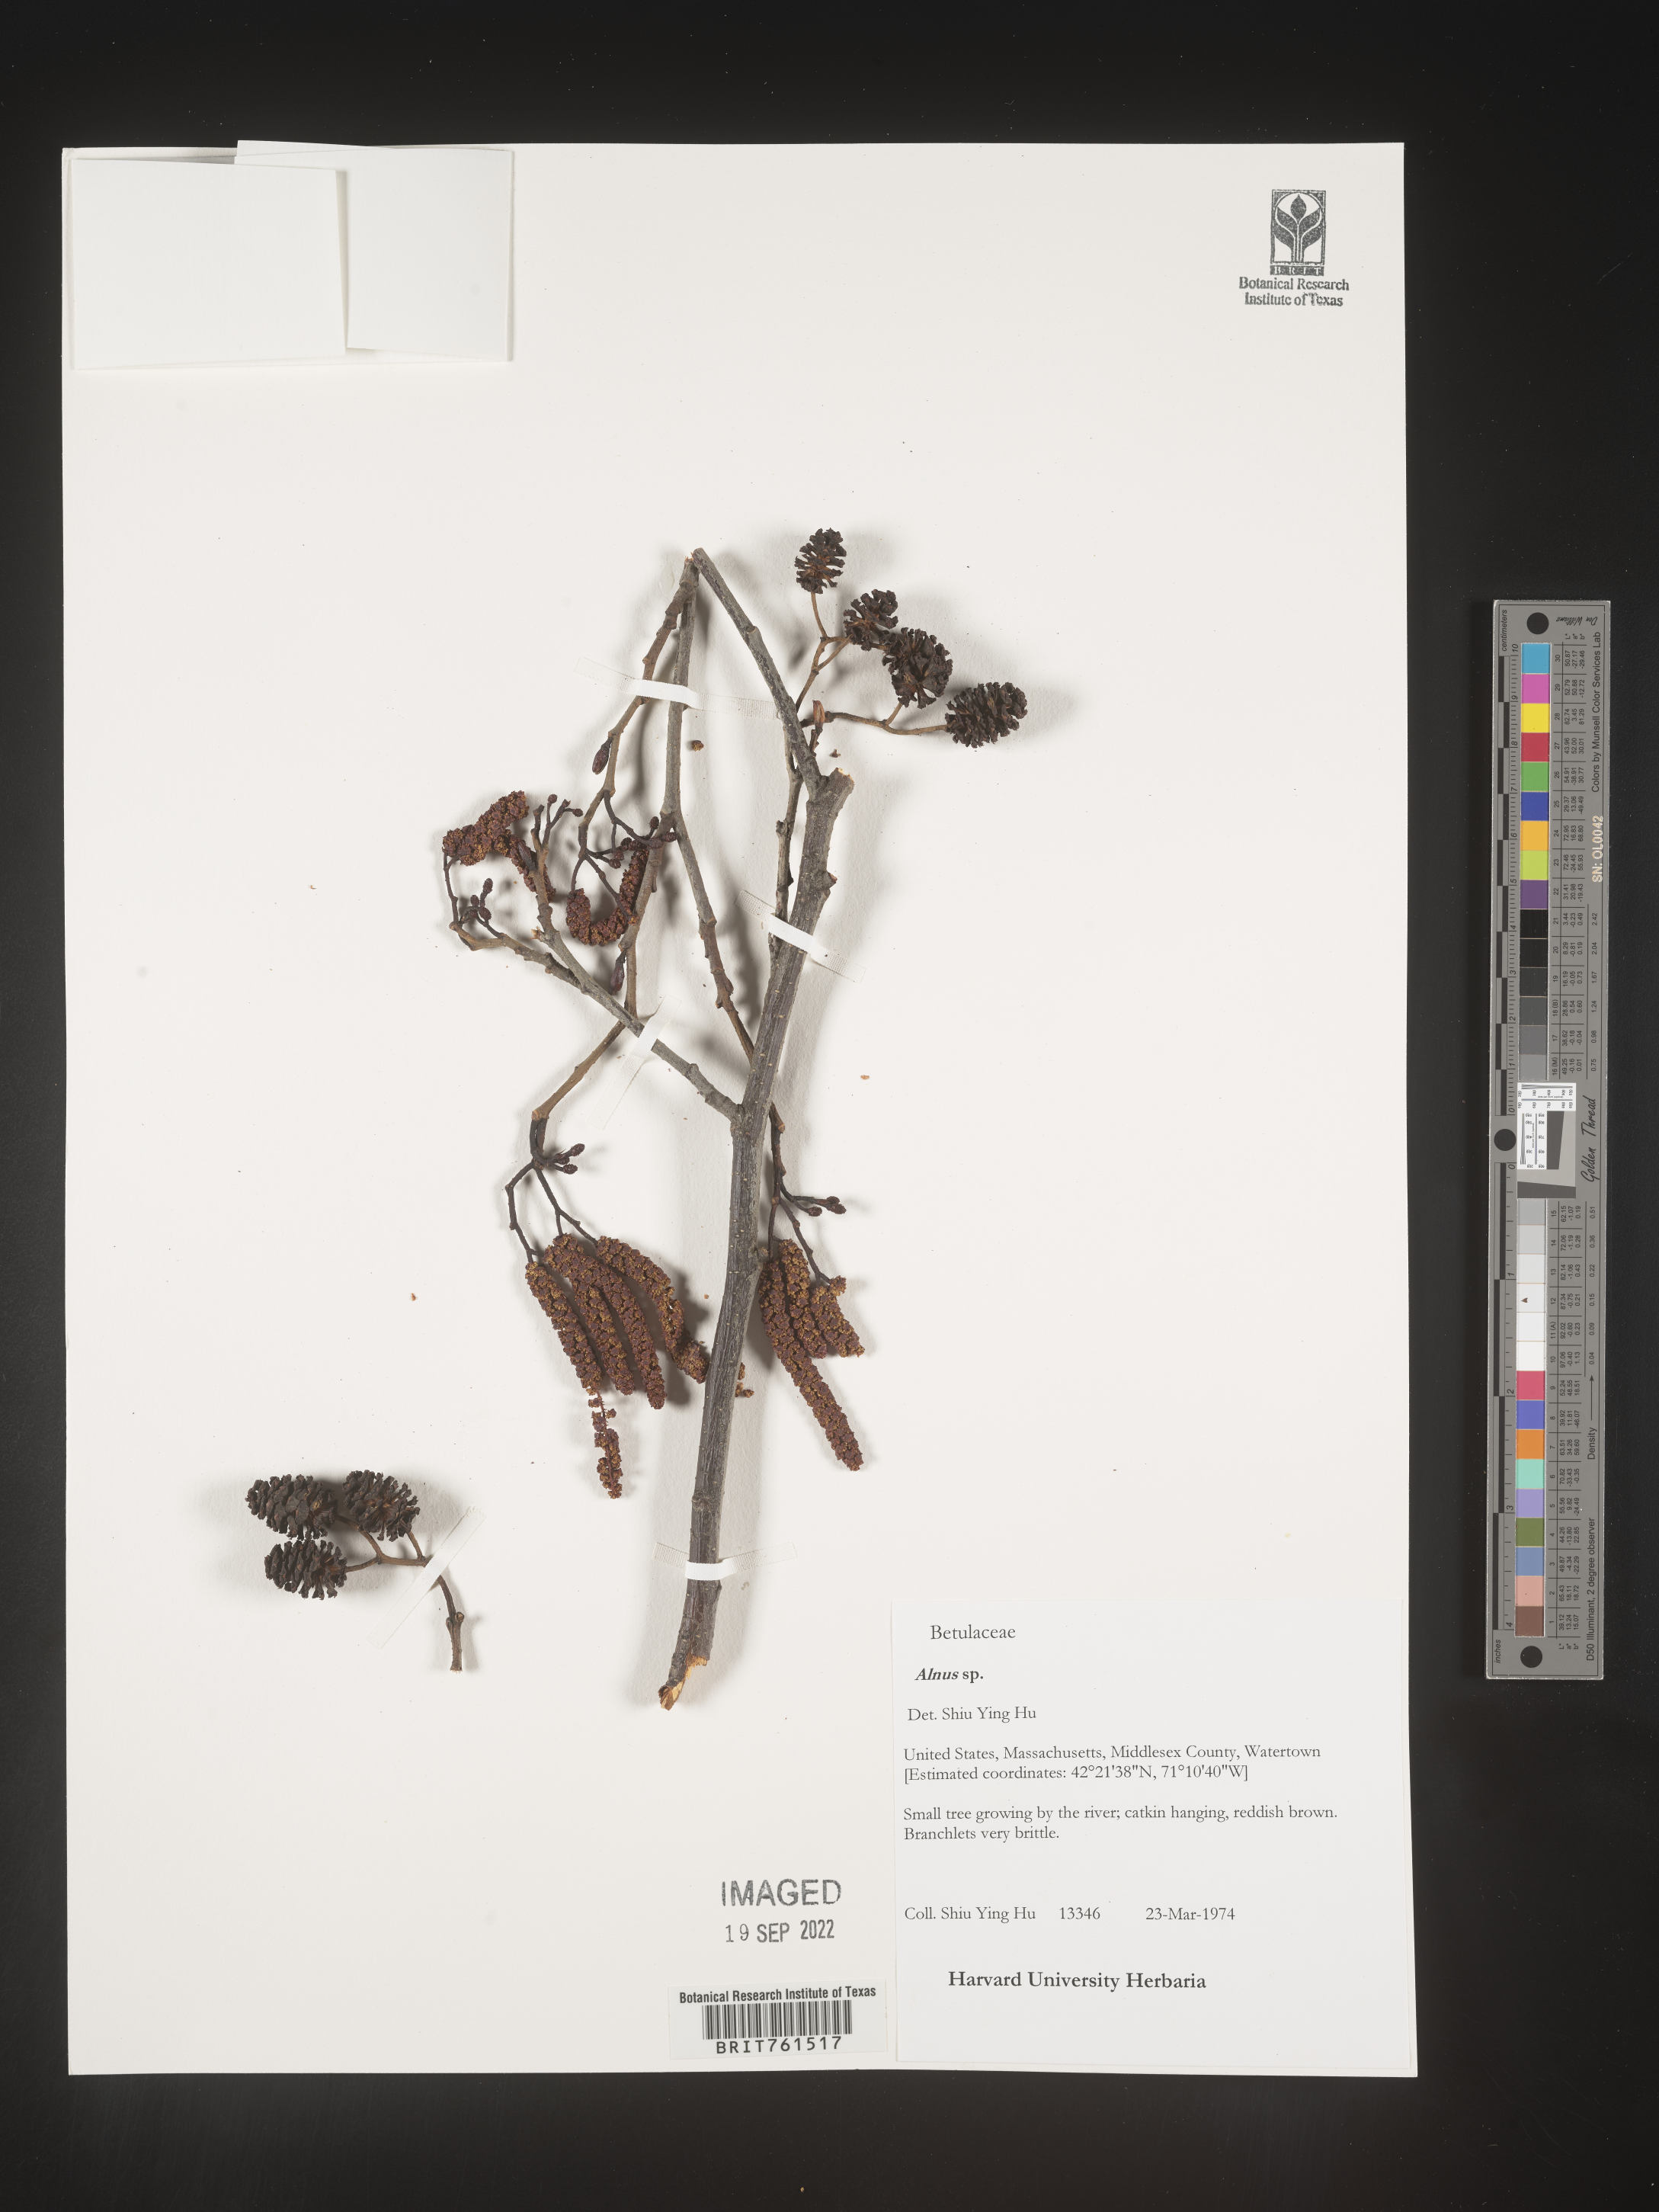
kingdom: Plantae
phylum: Tracheophyta
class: Magnoliopsida
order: Fagales
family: Betulaceae
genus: Alnus
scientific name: Alnus
